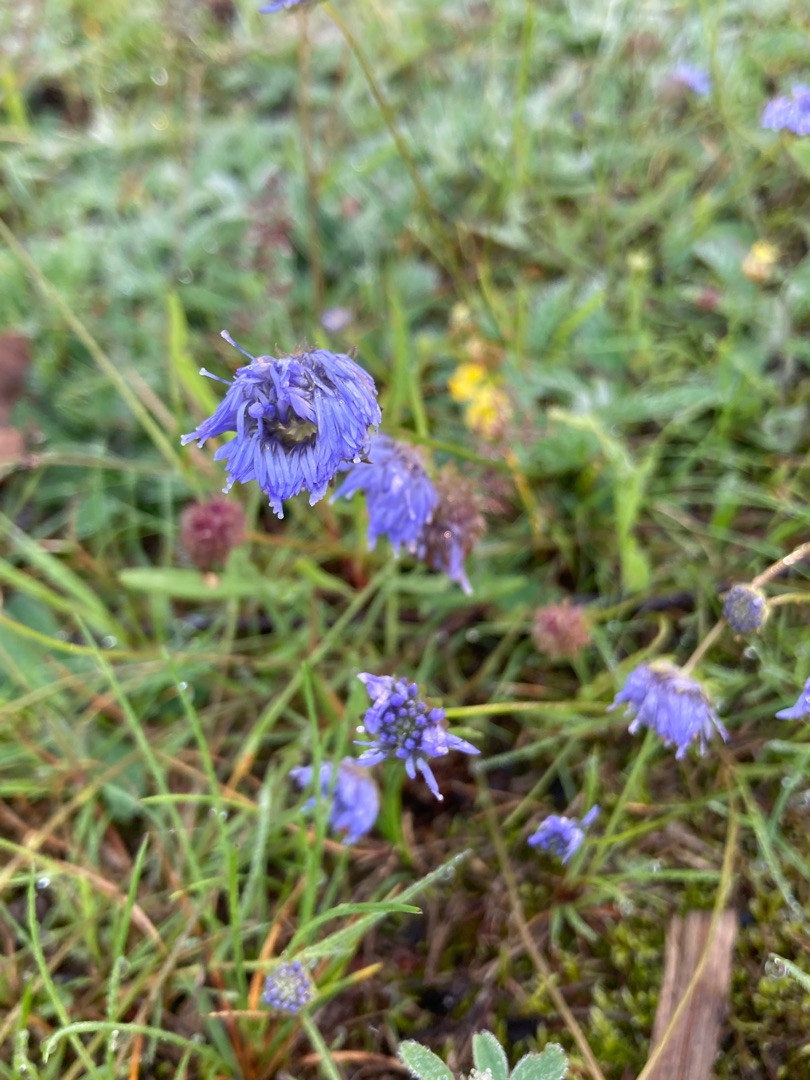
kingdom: Plantae
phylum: Tracheophyta
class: Magnoliopsida
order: Asterales
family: Campanulaceae
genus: Jasione
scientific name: Jasione montana
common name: Blåmunke
